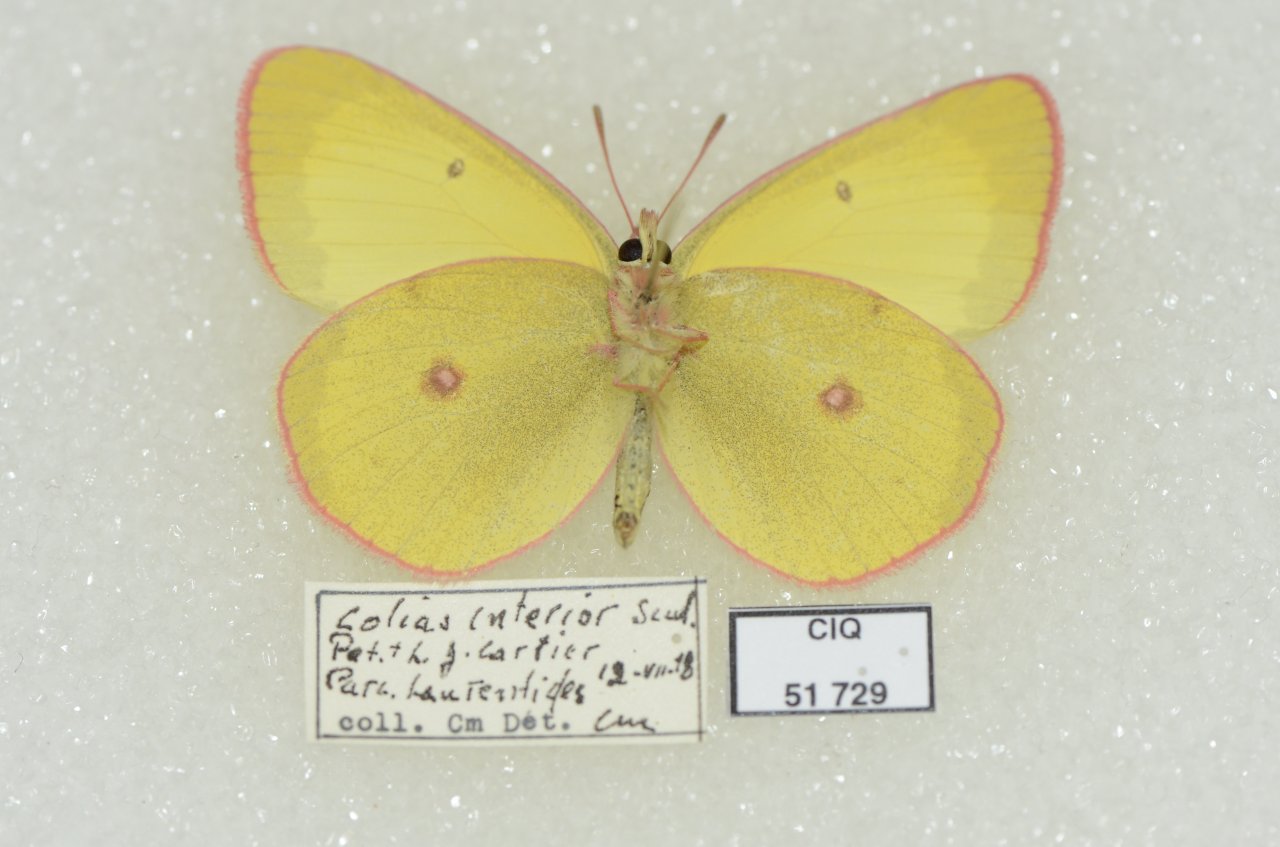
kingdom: Animalia
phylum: Arthropoda
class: Insecta
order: Lepidoptera
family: Pieridae
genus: Colias
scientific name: Colias interior
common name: Pink-edged Sulphur
